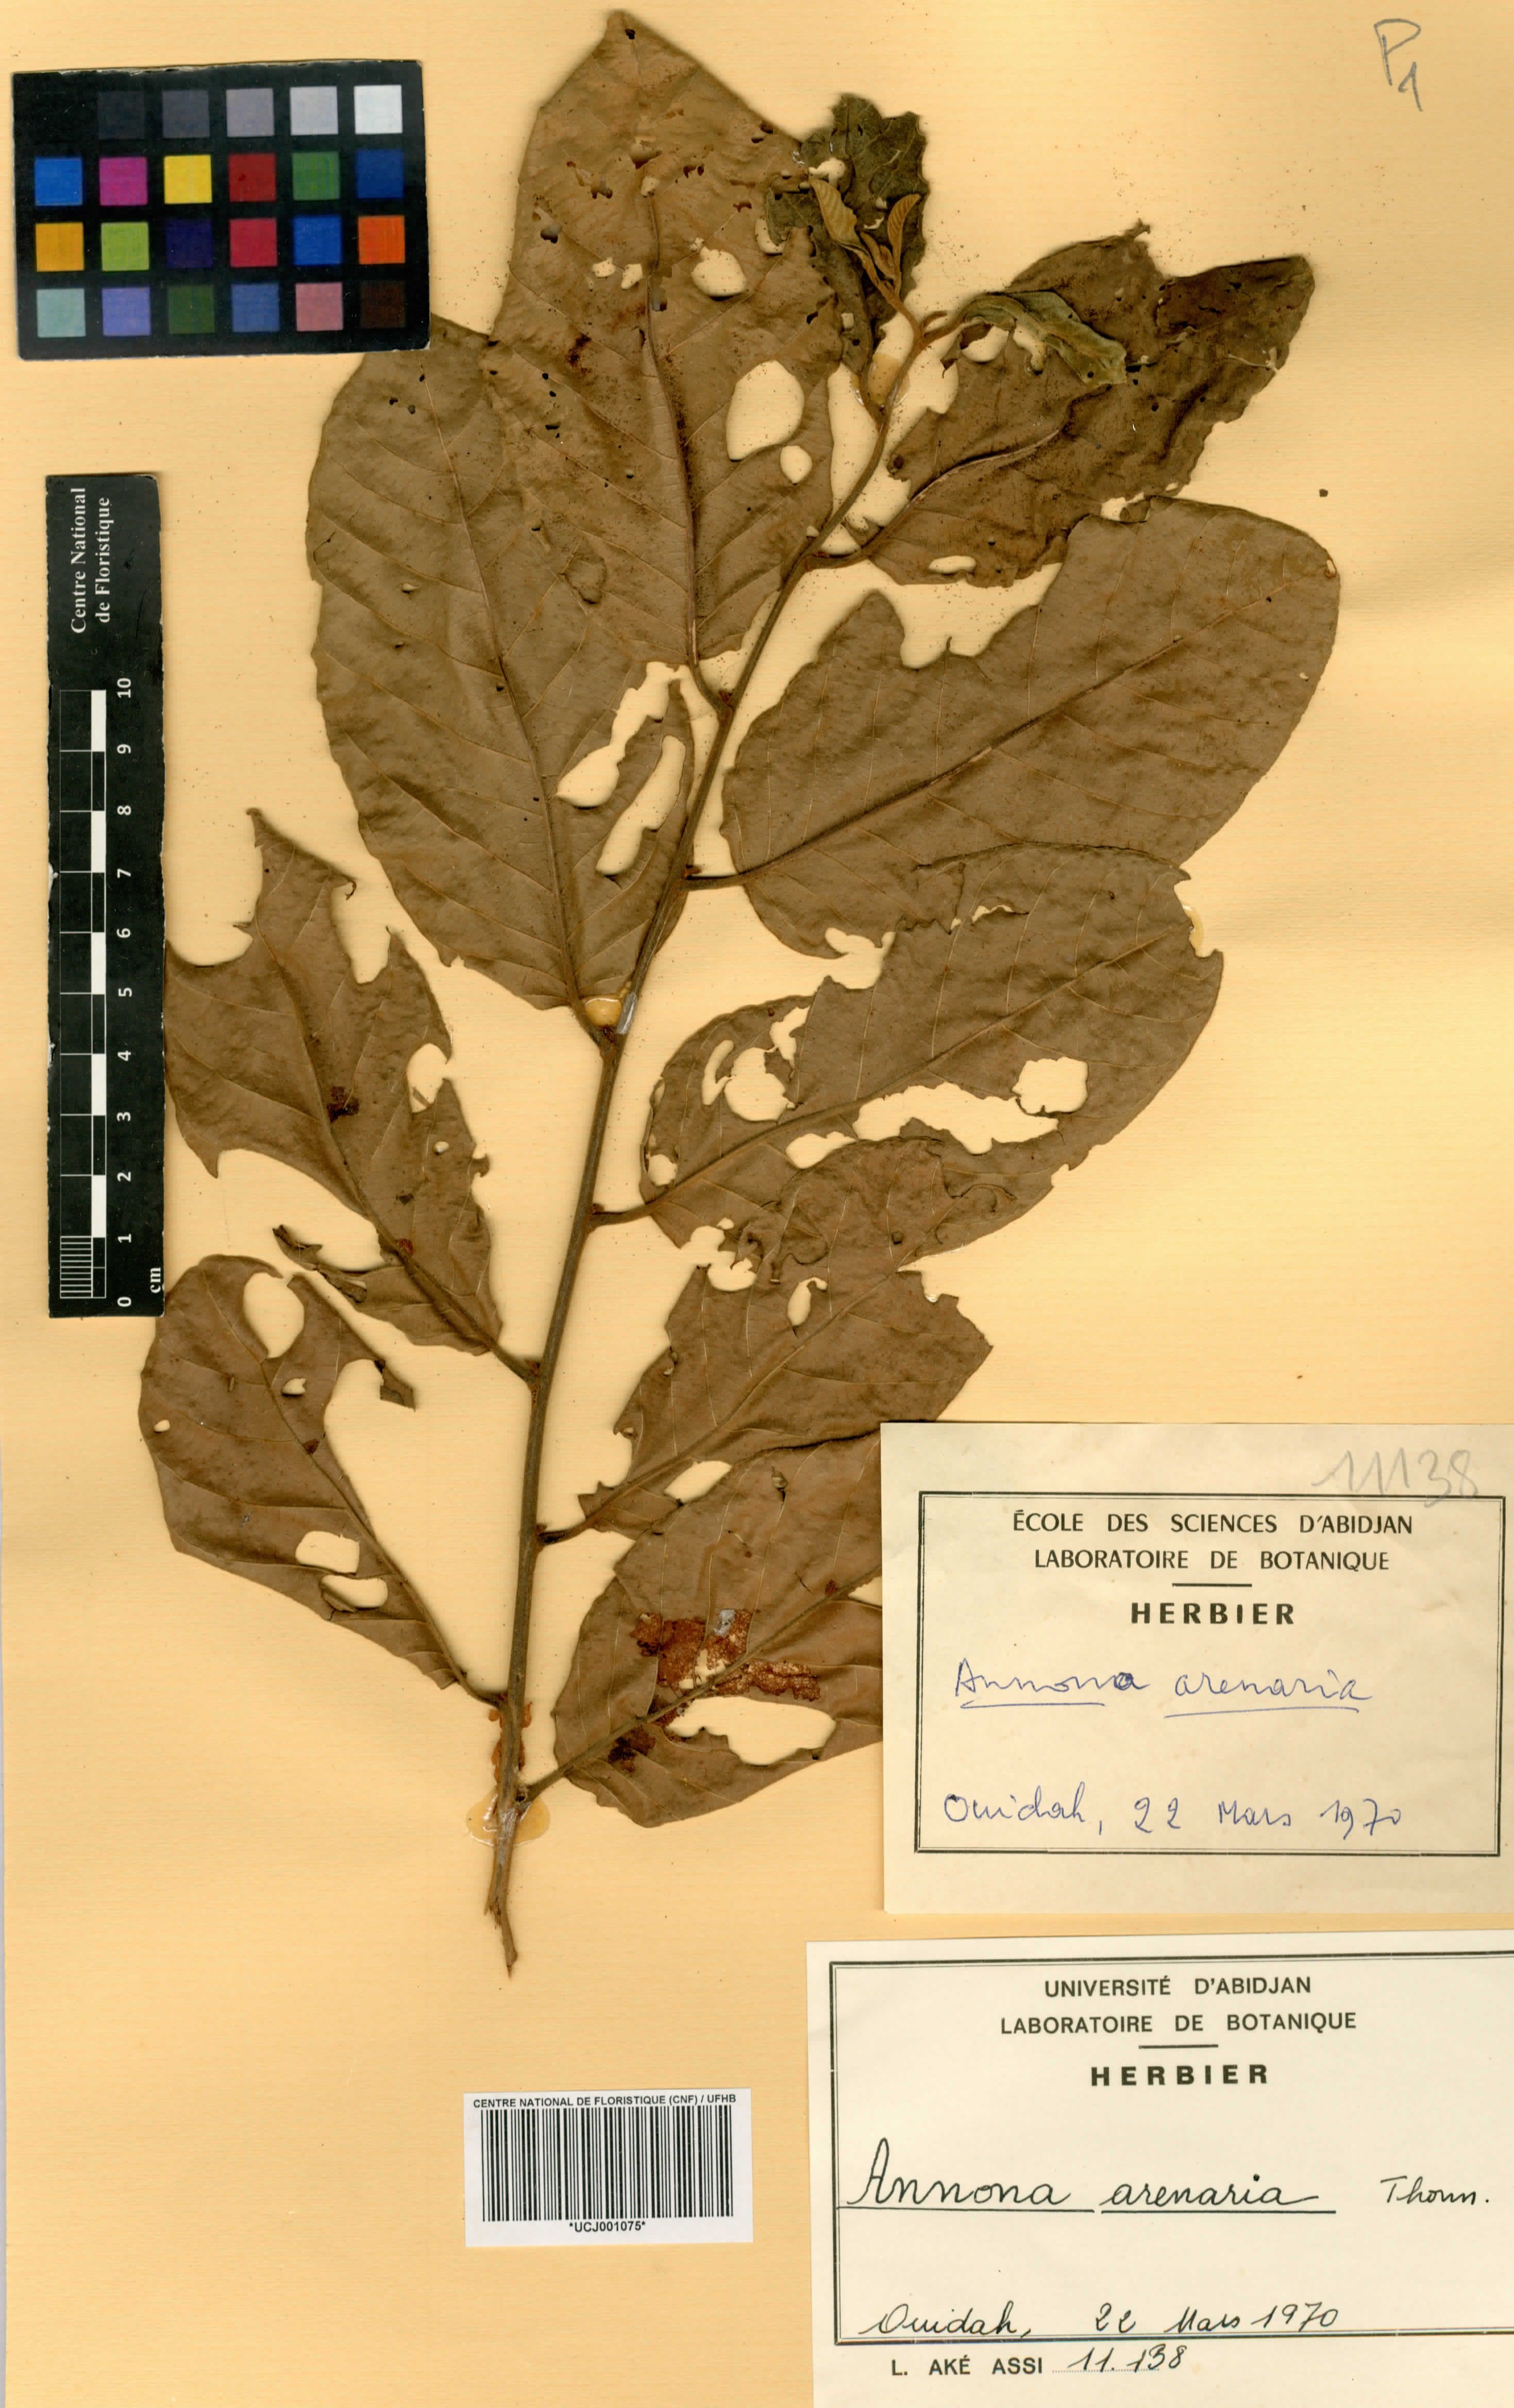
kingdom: Plantae
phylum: Tracheophyta
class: Magnoliopsida
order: Magnoliales
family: Annonaceae
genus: Annona
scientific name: Annona senegalensis
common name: Wild custard-apple
